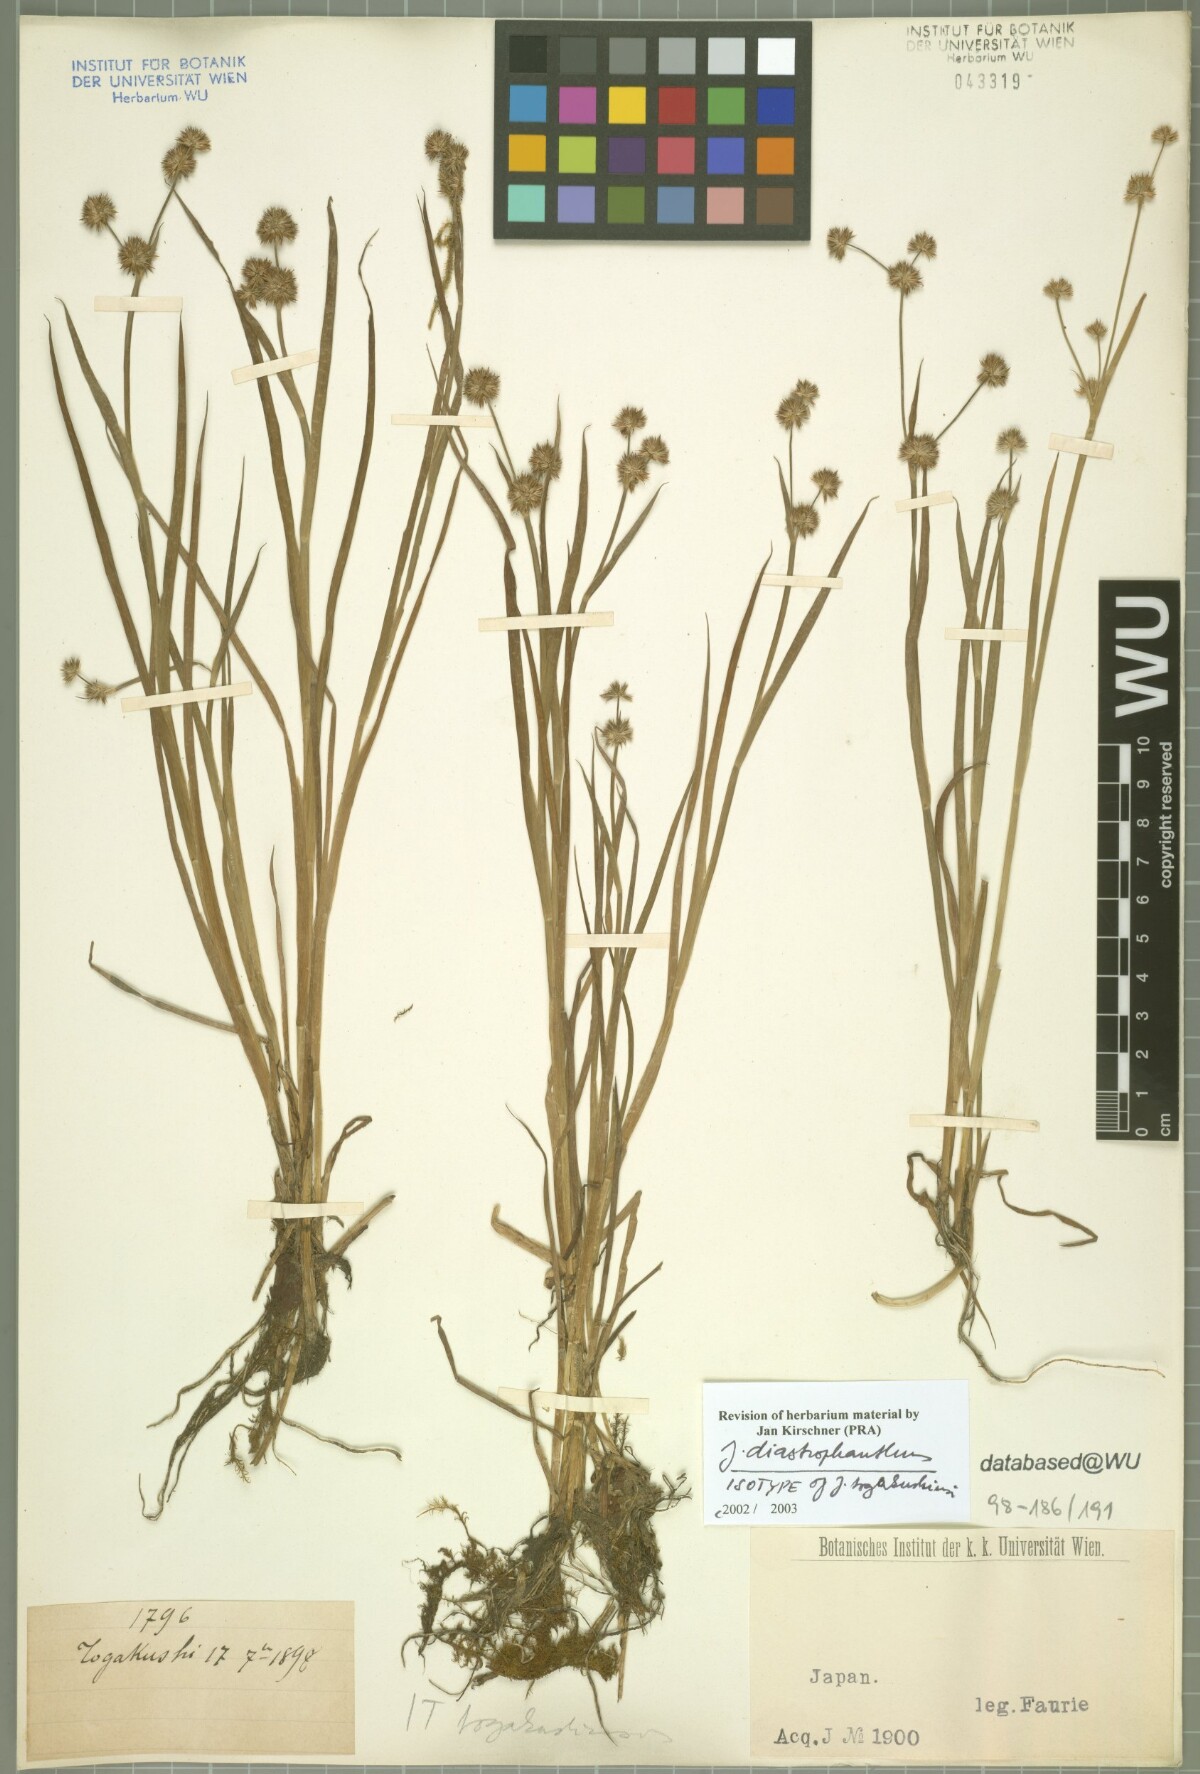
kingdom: Plantae
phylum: Tracheophyta
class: Liliopsida
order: Poales
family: Juncaceae
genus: Juncus
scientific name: Juncus diastrophanthus
